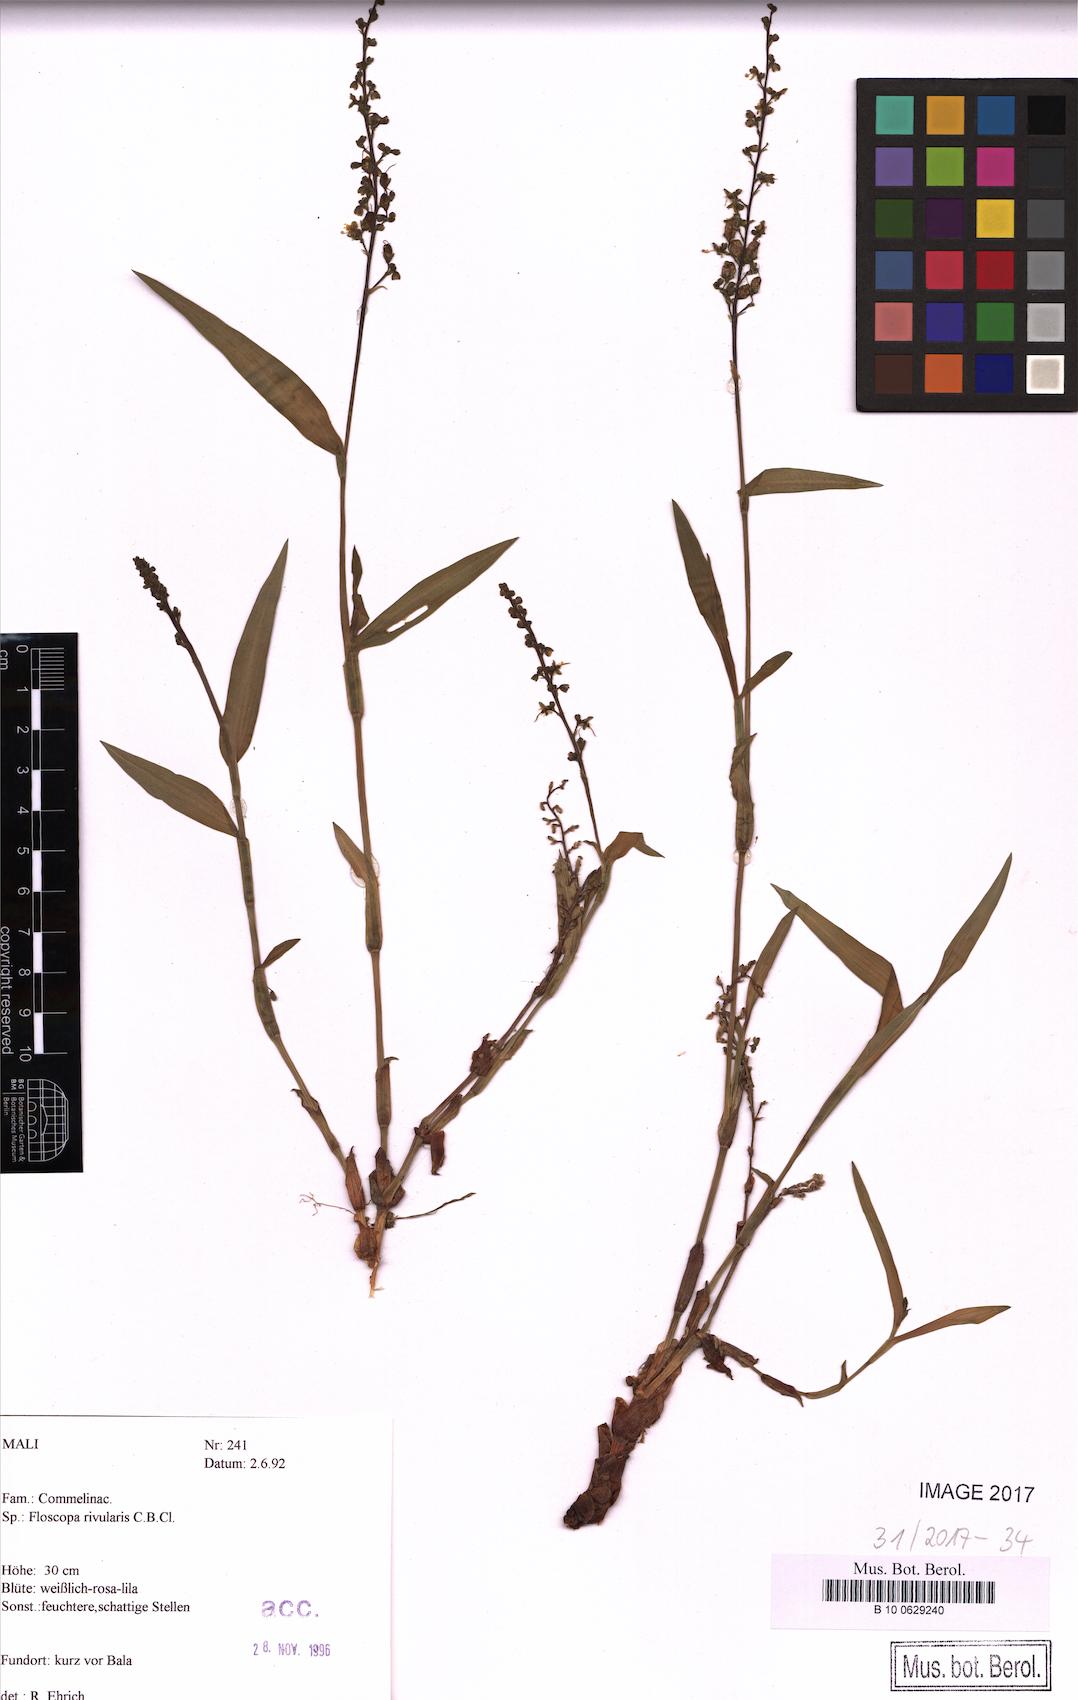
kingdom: Plantae
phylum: Tracheophyta
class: Liliopsida
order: Commelinales
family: Commelinaceae
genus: Floscopa
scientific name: Floscopa glomerata
